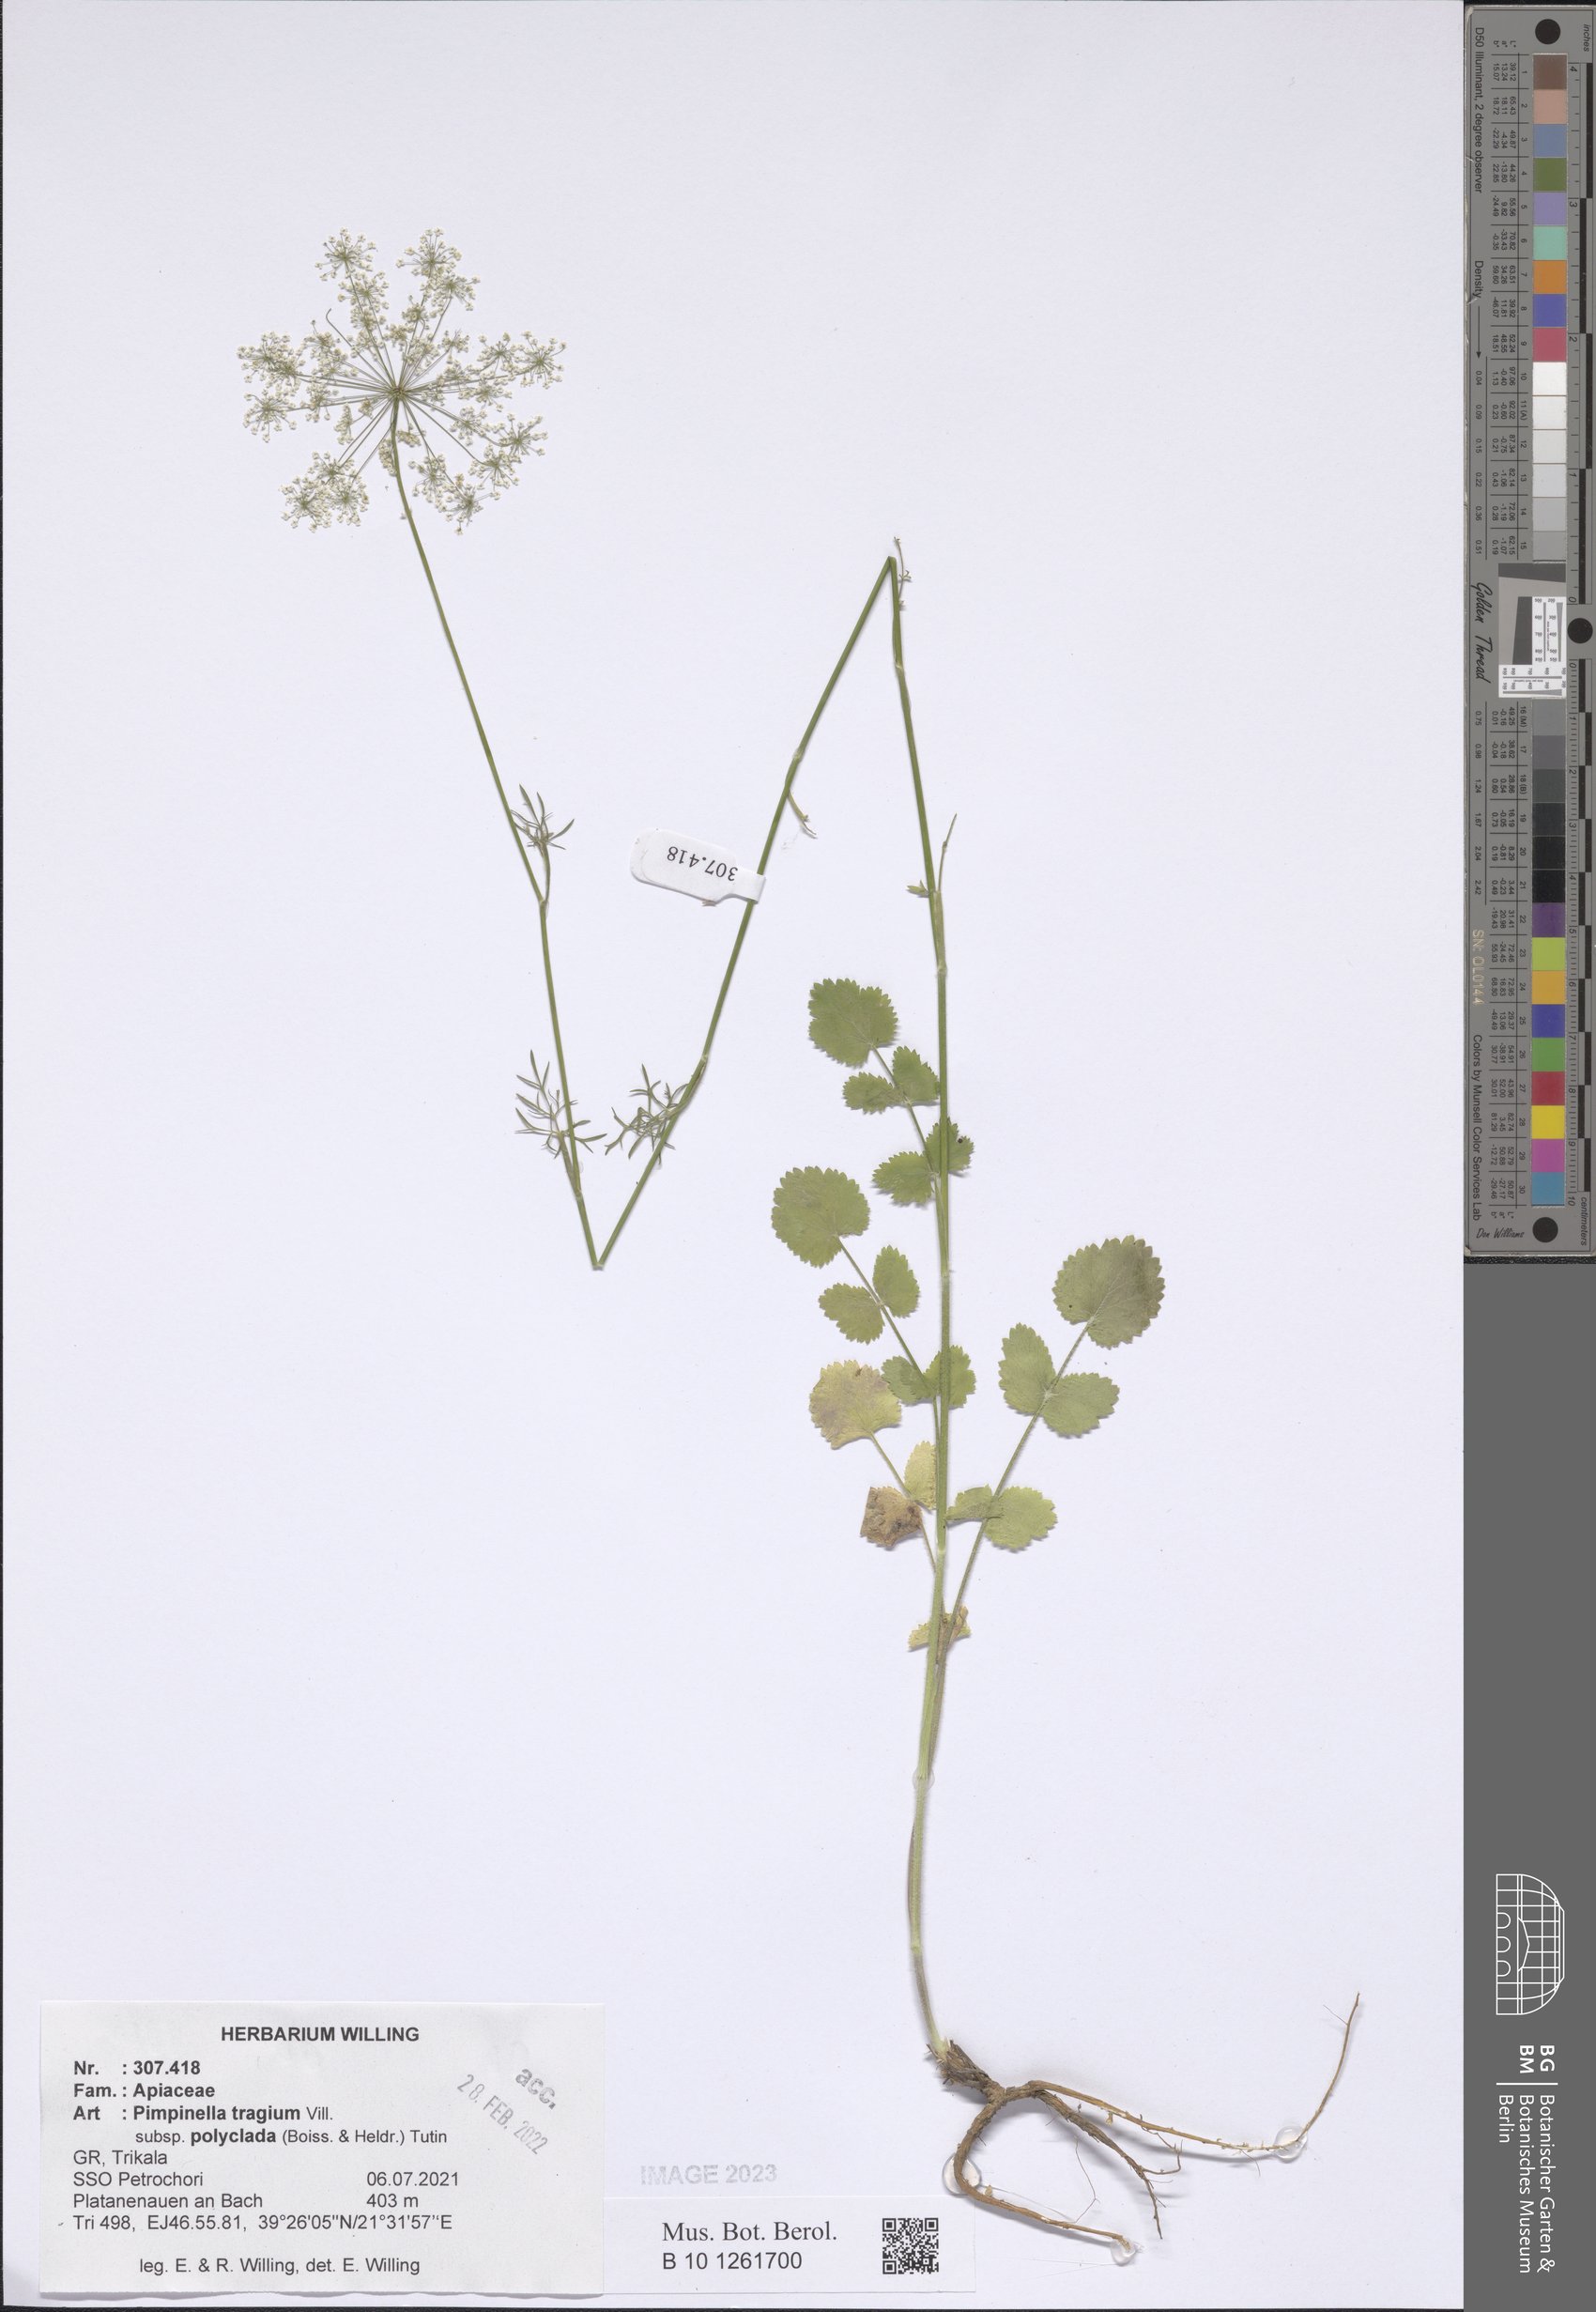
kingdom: Plantae
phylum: Tracheophyta
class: Magnoliopsida
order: Apiales
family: Apiaceae
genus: Pimpinella
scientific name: Pimpinella tragium
